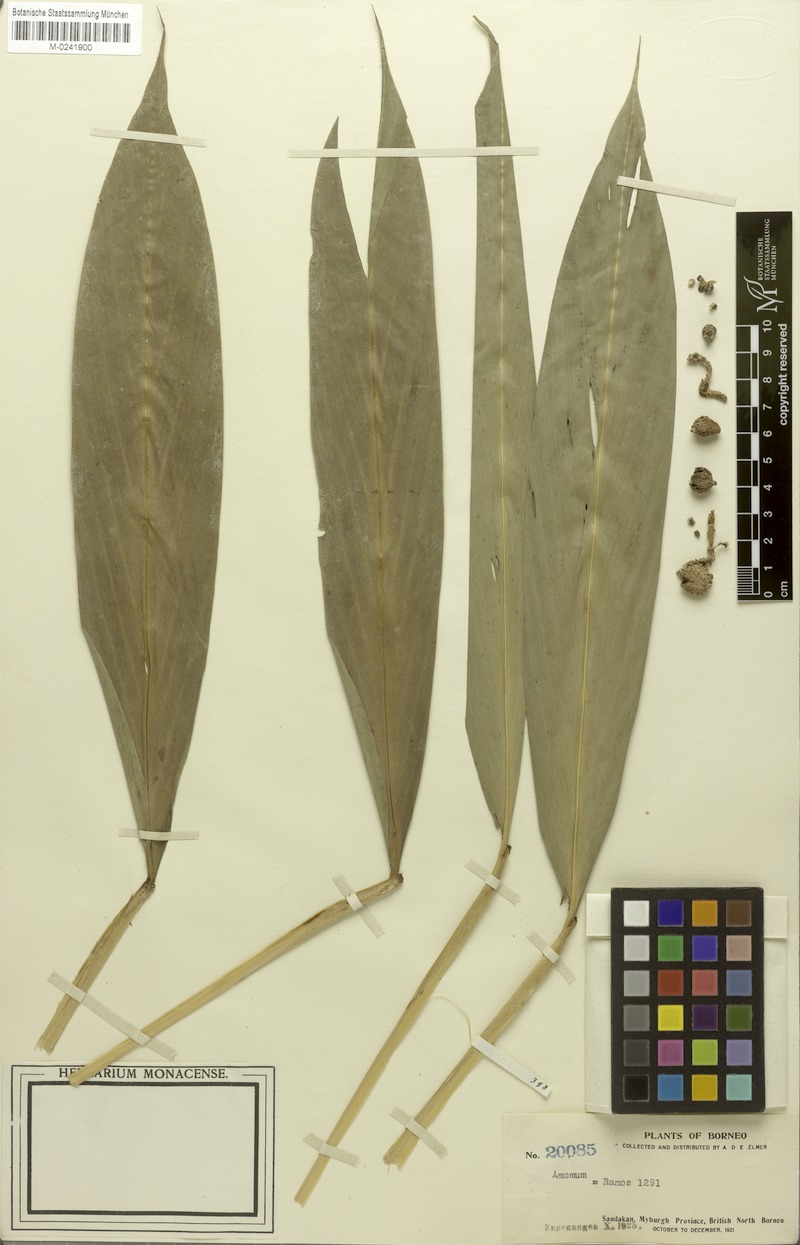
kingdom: Plantae
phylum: Tracheophyta
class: Liliopsida
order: Zingiberales
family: Zingiberaceae
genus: Amomum
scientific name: Amomum
